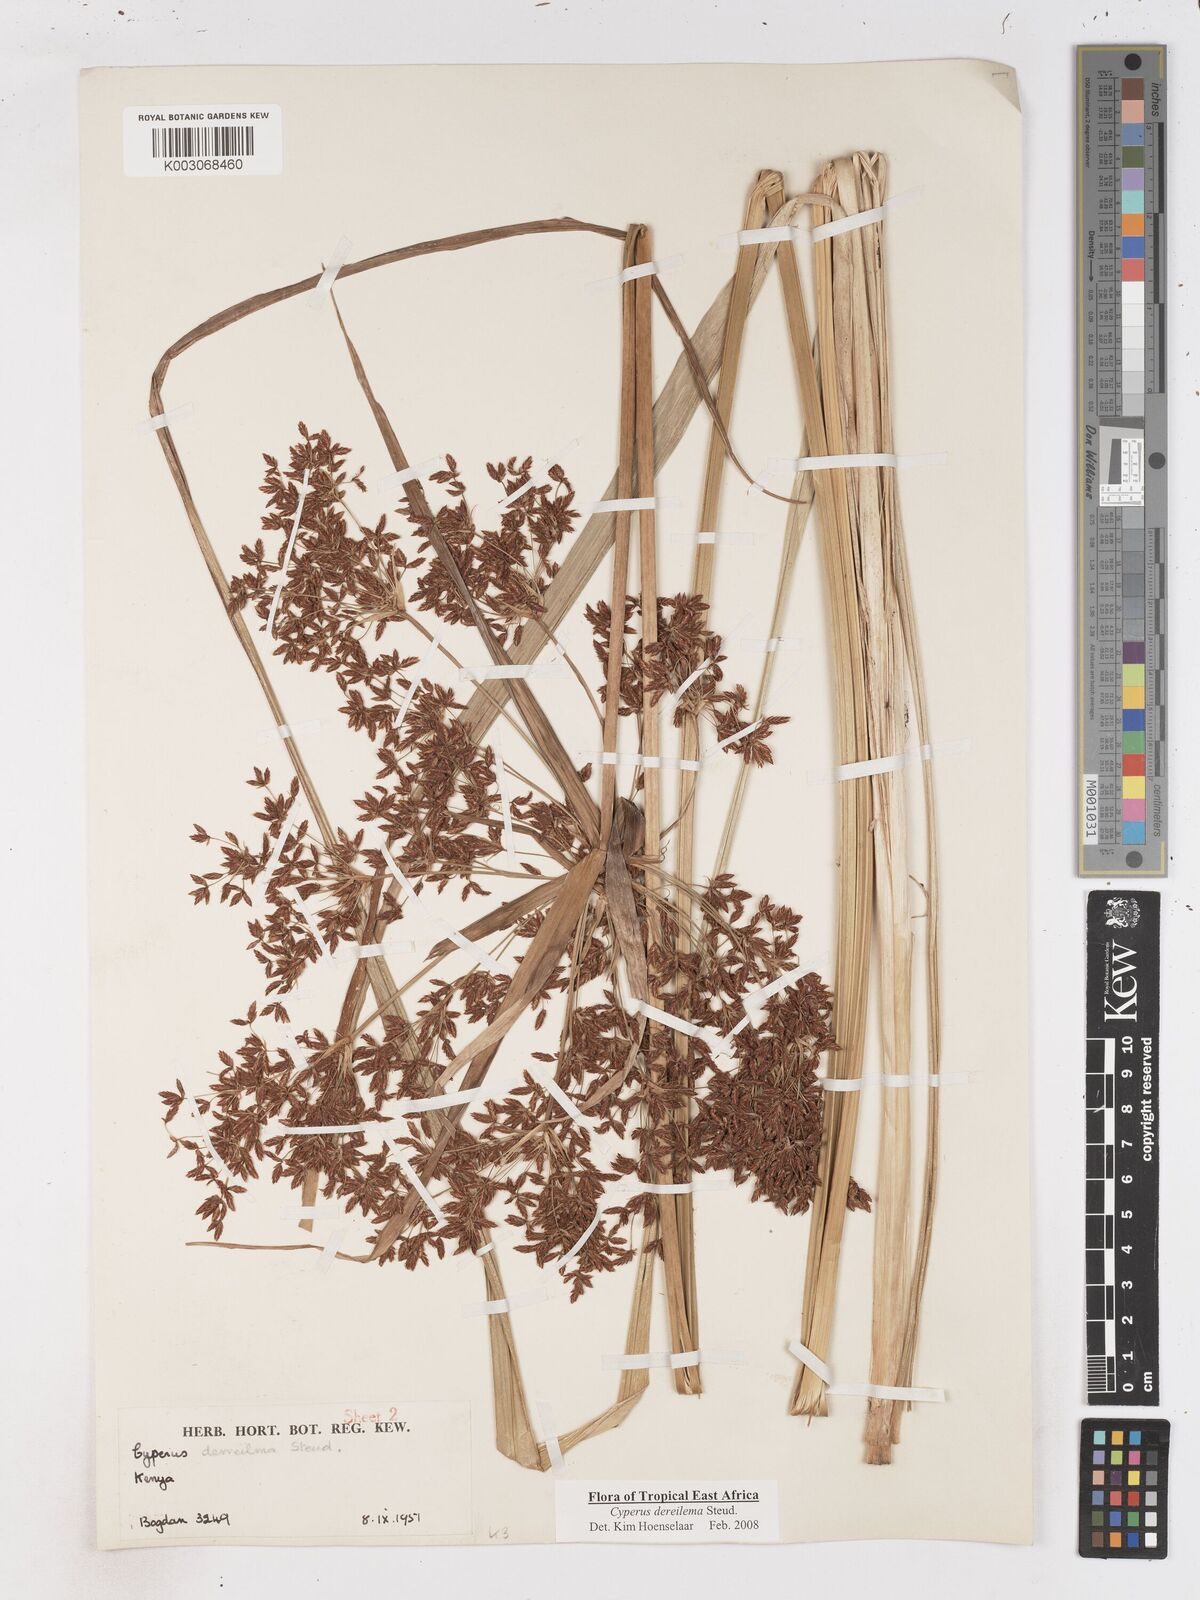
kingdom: Plantae
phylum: Tracheophyta
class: Liliopsida
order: Poales
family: Cyperaceae
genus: Cyperus
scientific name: Cyperus derreilema
